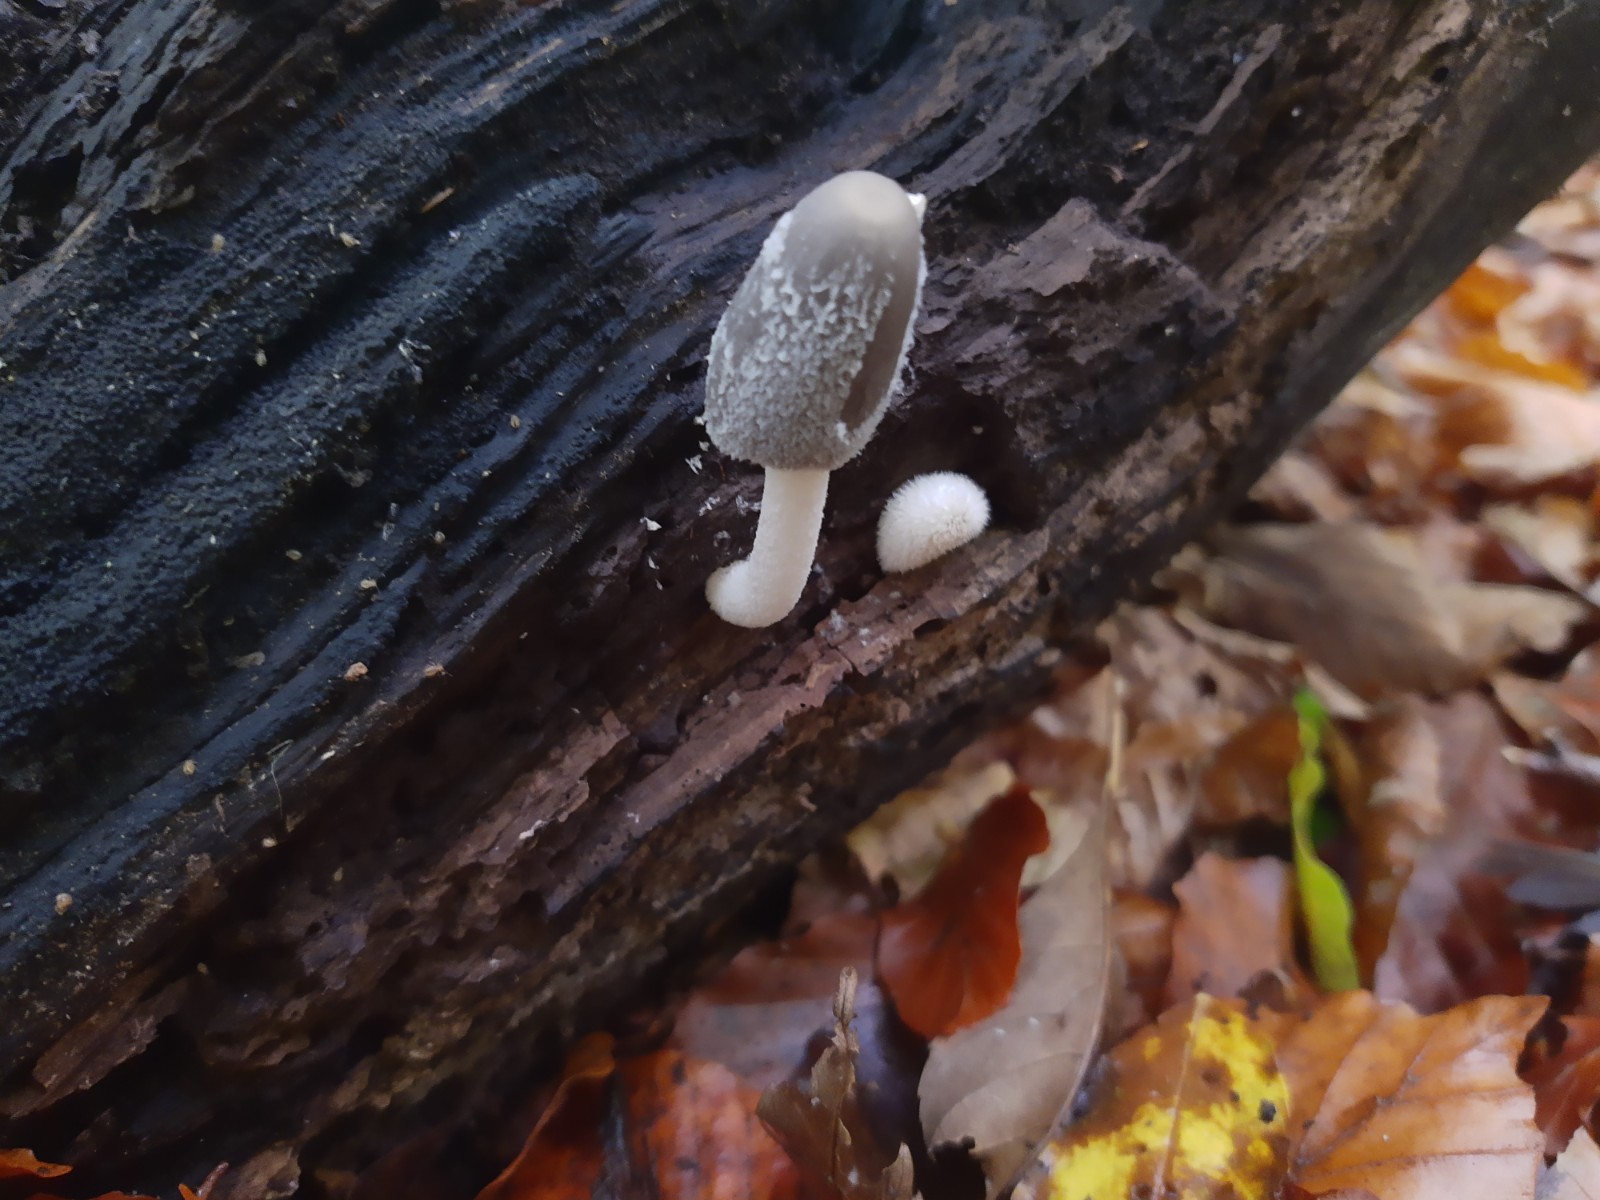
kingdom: Fungi
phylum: Basidiomycota
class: Agaricomycetes
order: Agaricales
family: Psathyrellaceae
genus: Coprinopsis
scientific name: Coprinopsis lagopus
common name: dunstokket blækhat
